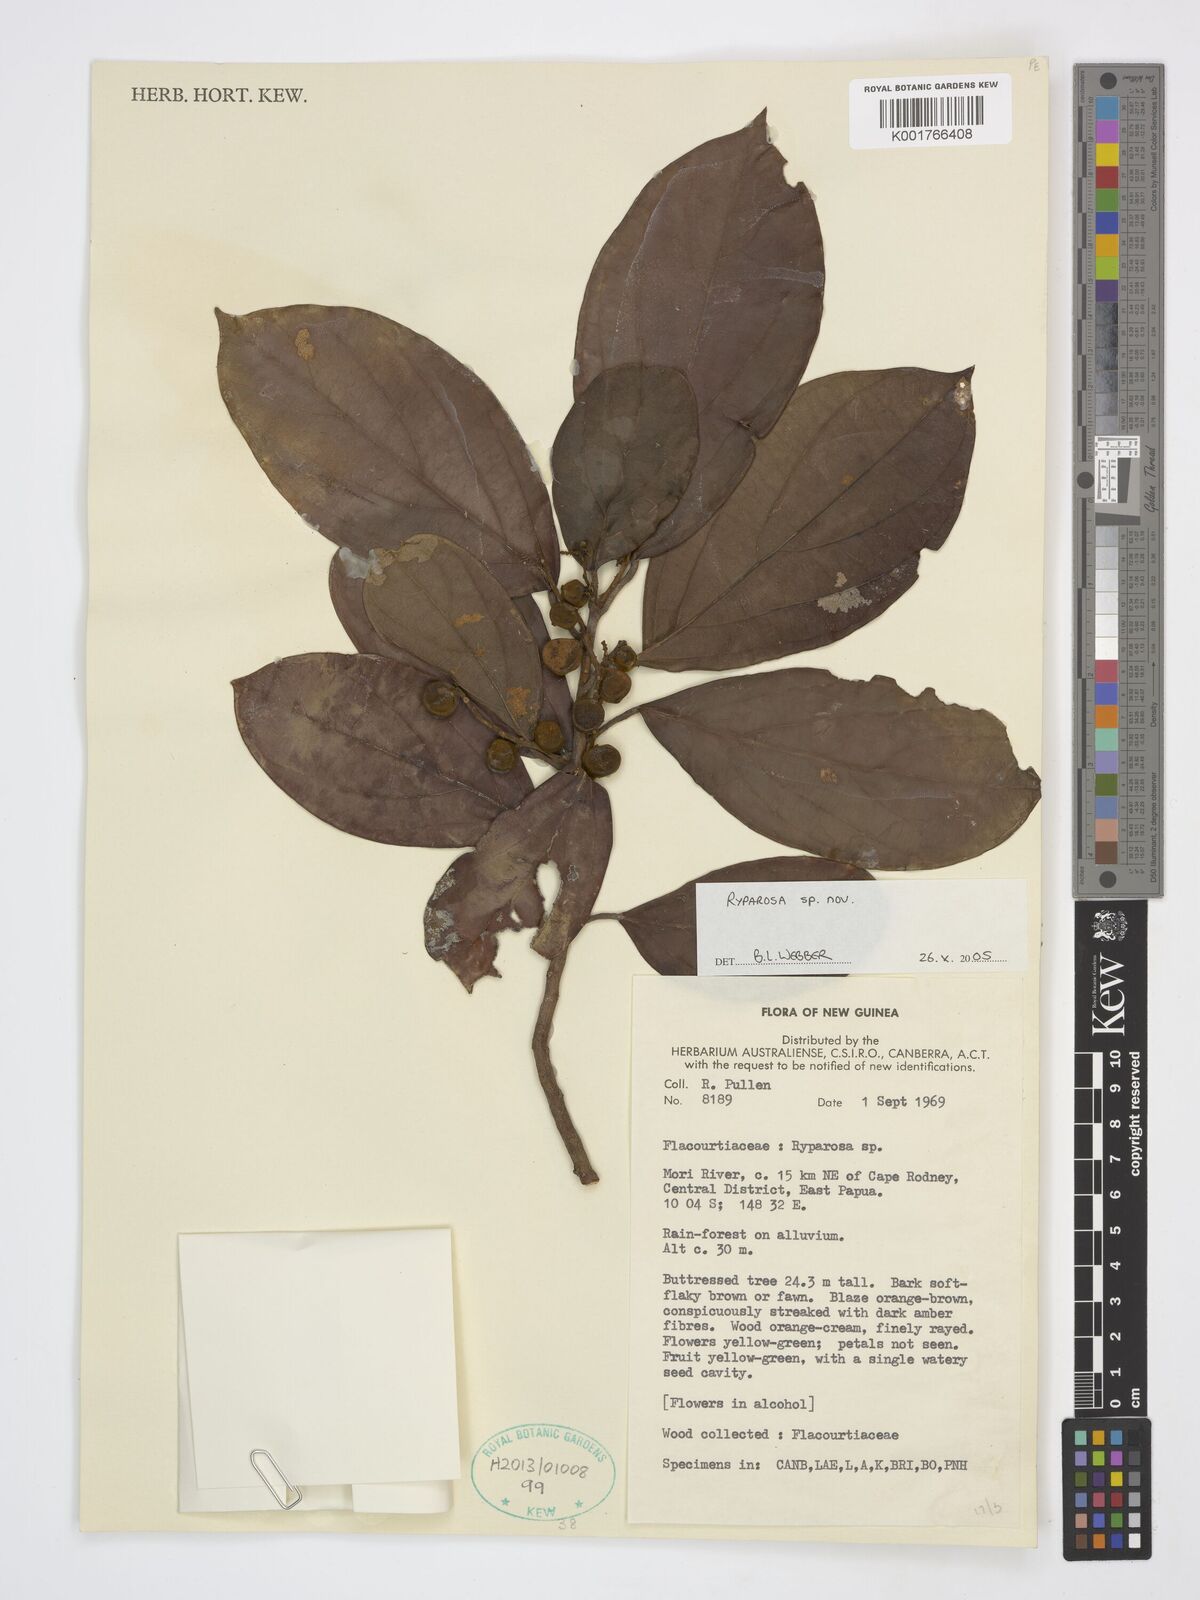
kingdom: Plantae
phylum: Tracheophyta
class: Magnoliopsida
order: Malpighiales
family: Achariaceae
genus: Ryparosa
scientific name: Ryparosa
